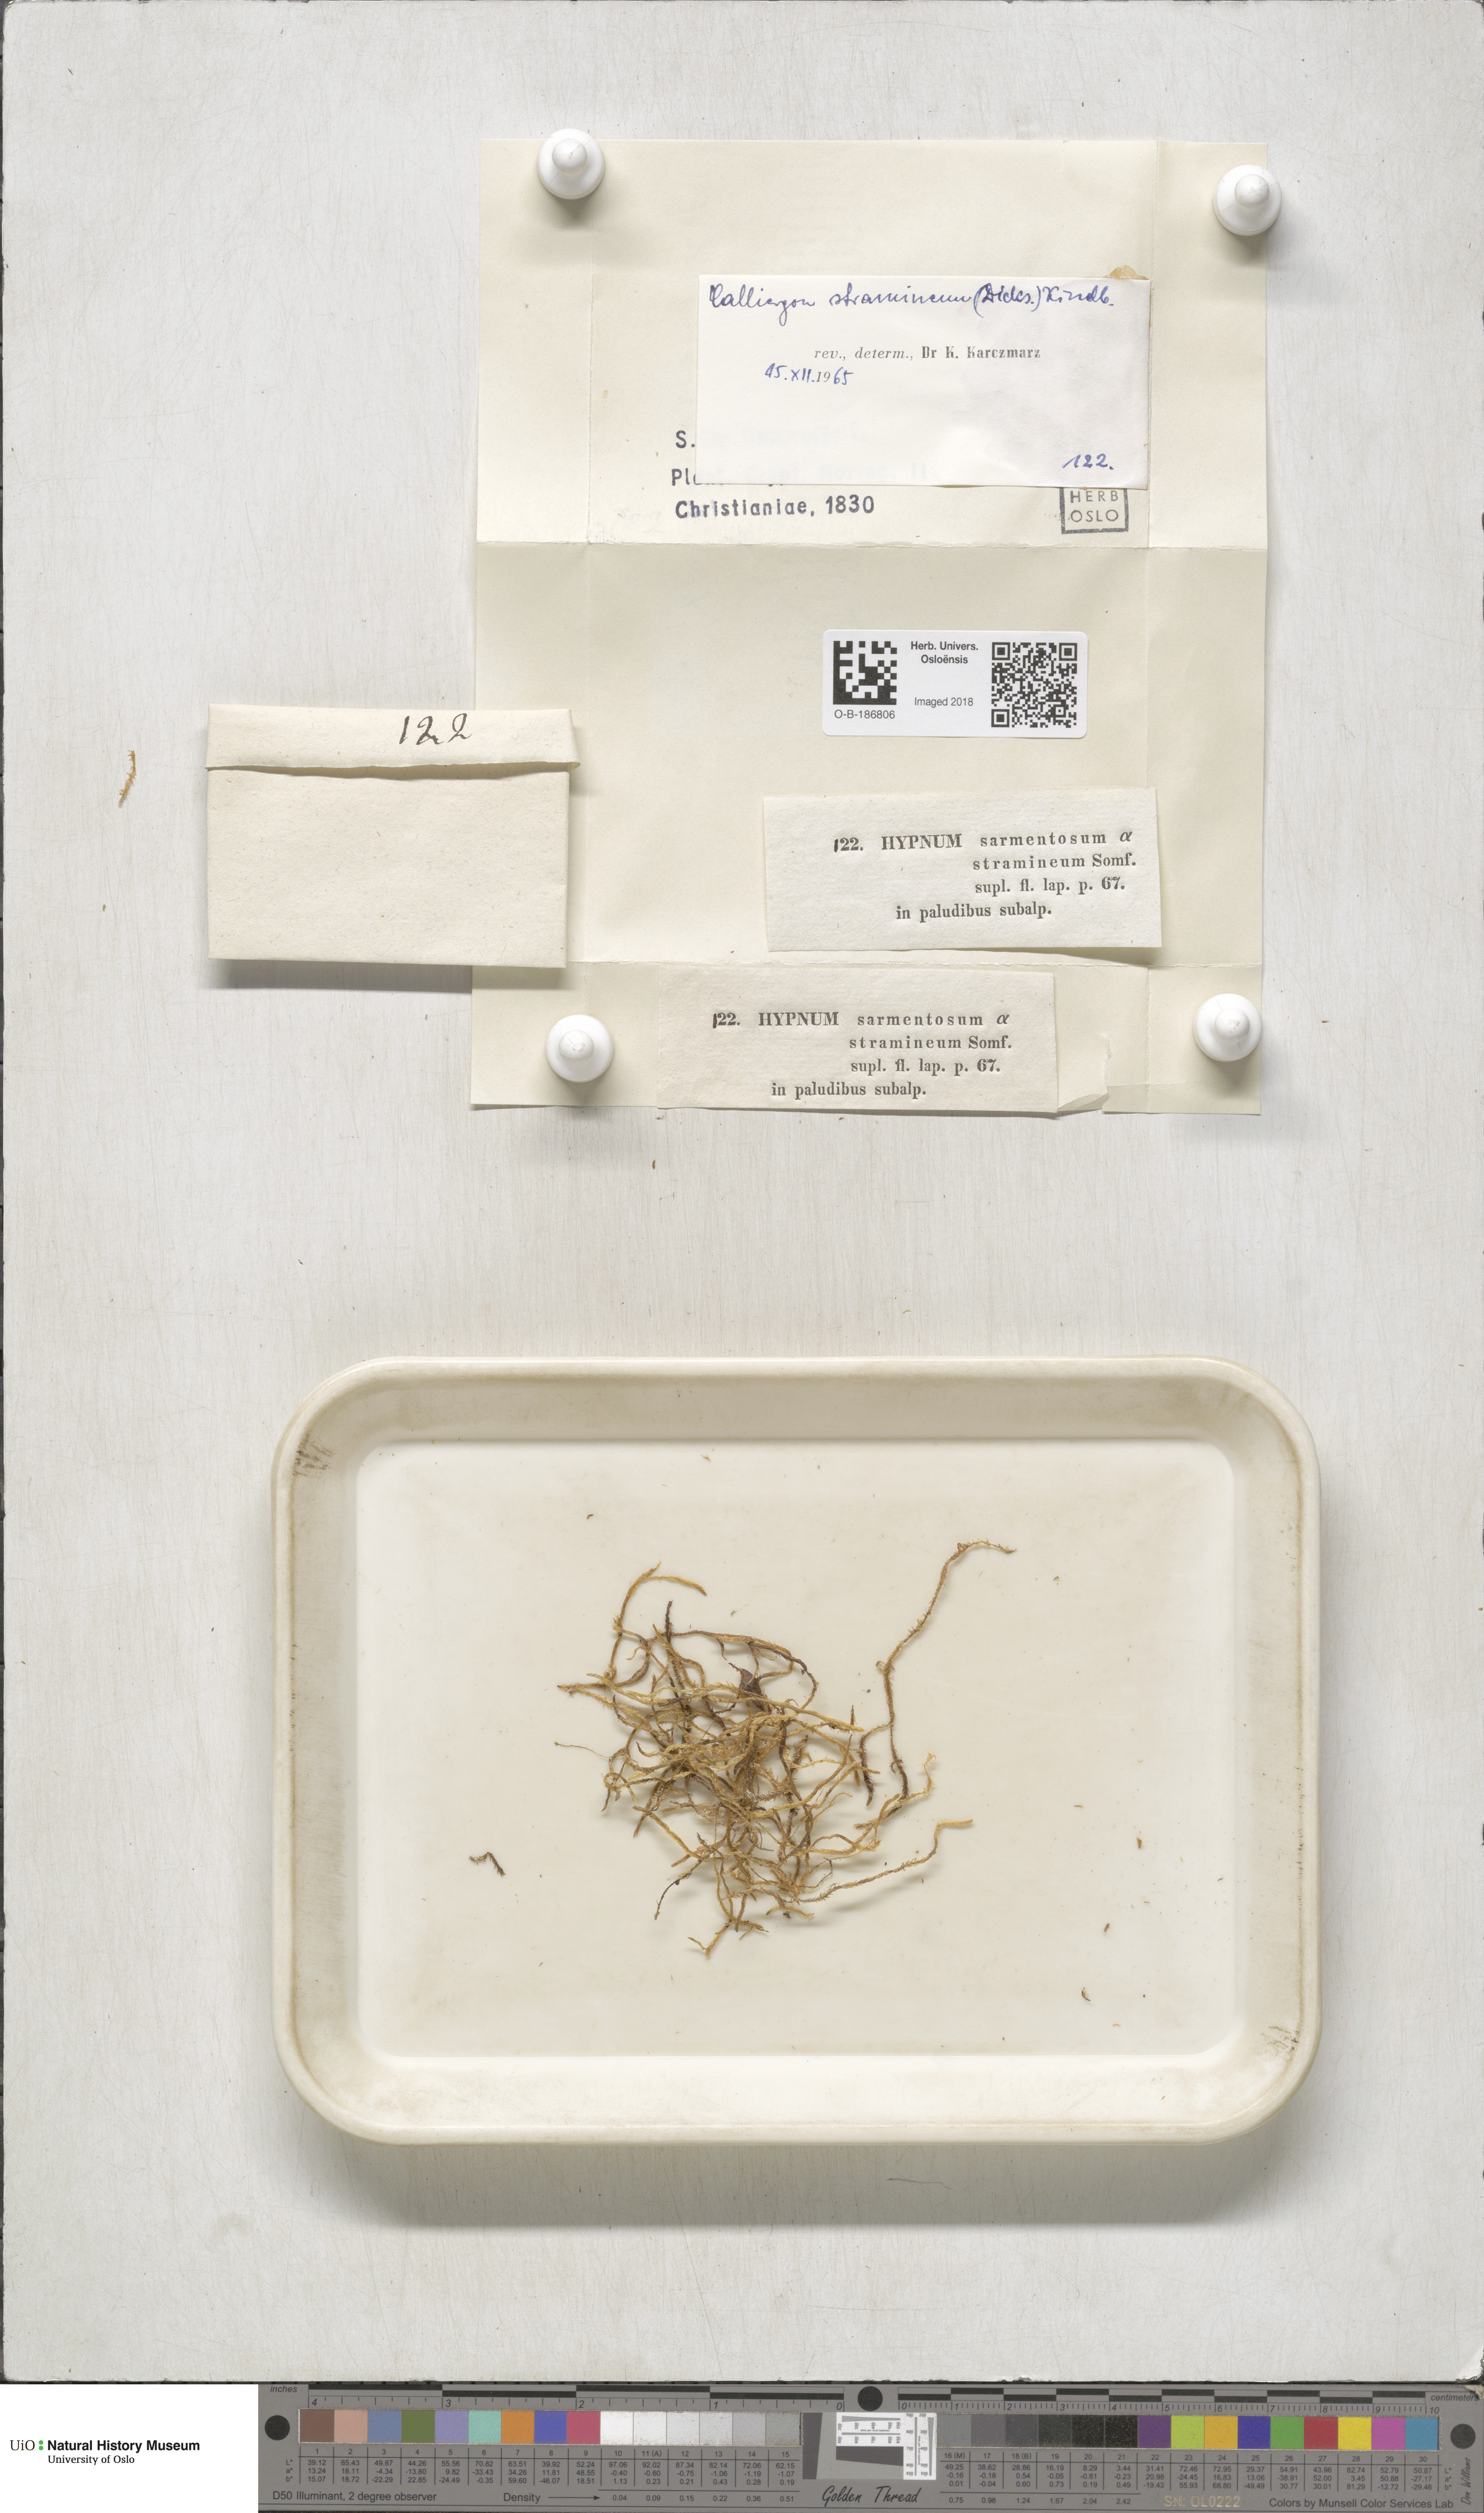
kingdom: Plantae
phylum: Bryophyta
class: Bryopsida
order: Hypnales
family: Calliergonaceae
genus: Straminergon
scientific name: Straminergon stramineum
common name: Straw moss
